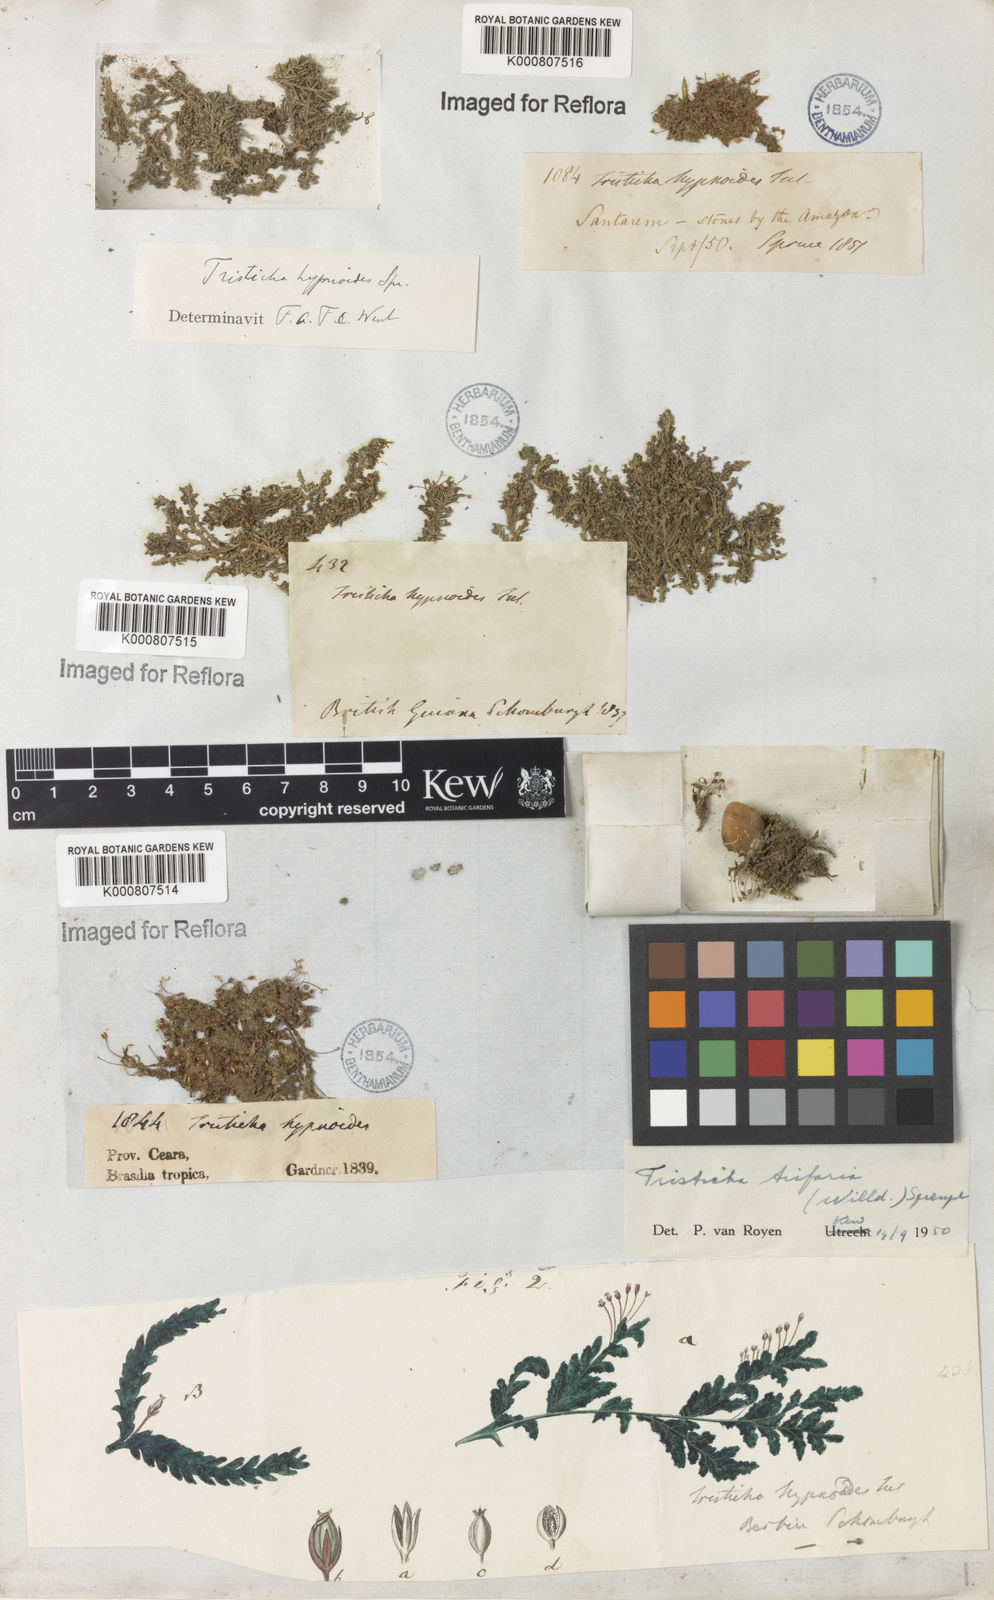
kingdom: Plantae
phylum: Tracheophyta
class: Magnoliopsida
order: Malpighiales
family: Podostemaceae
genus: Tristicha
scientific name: Tristicha trifaria
